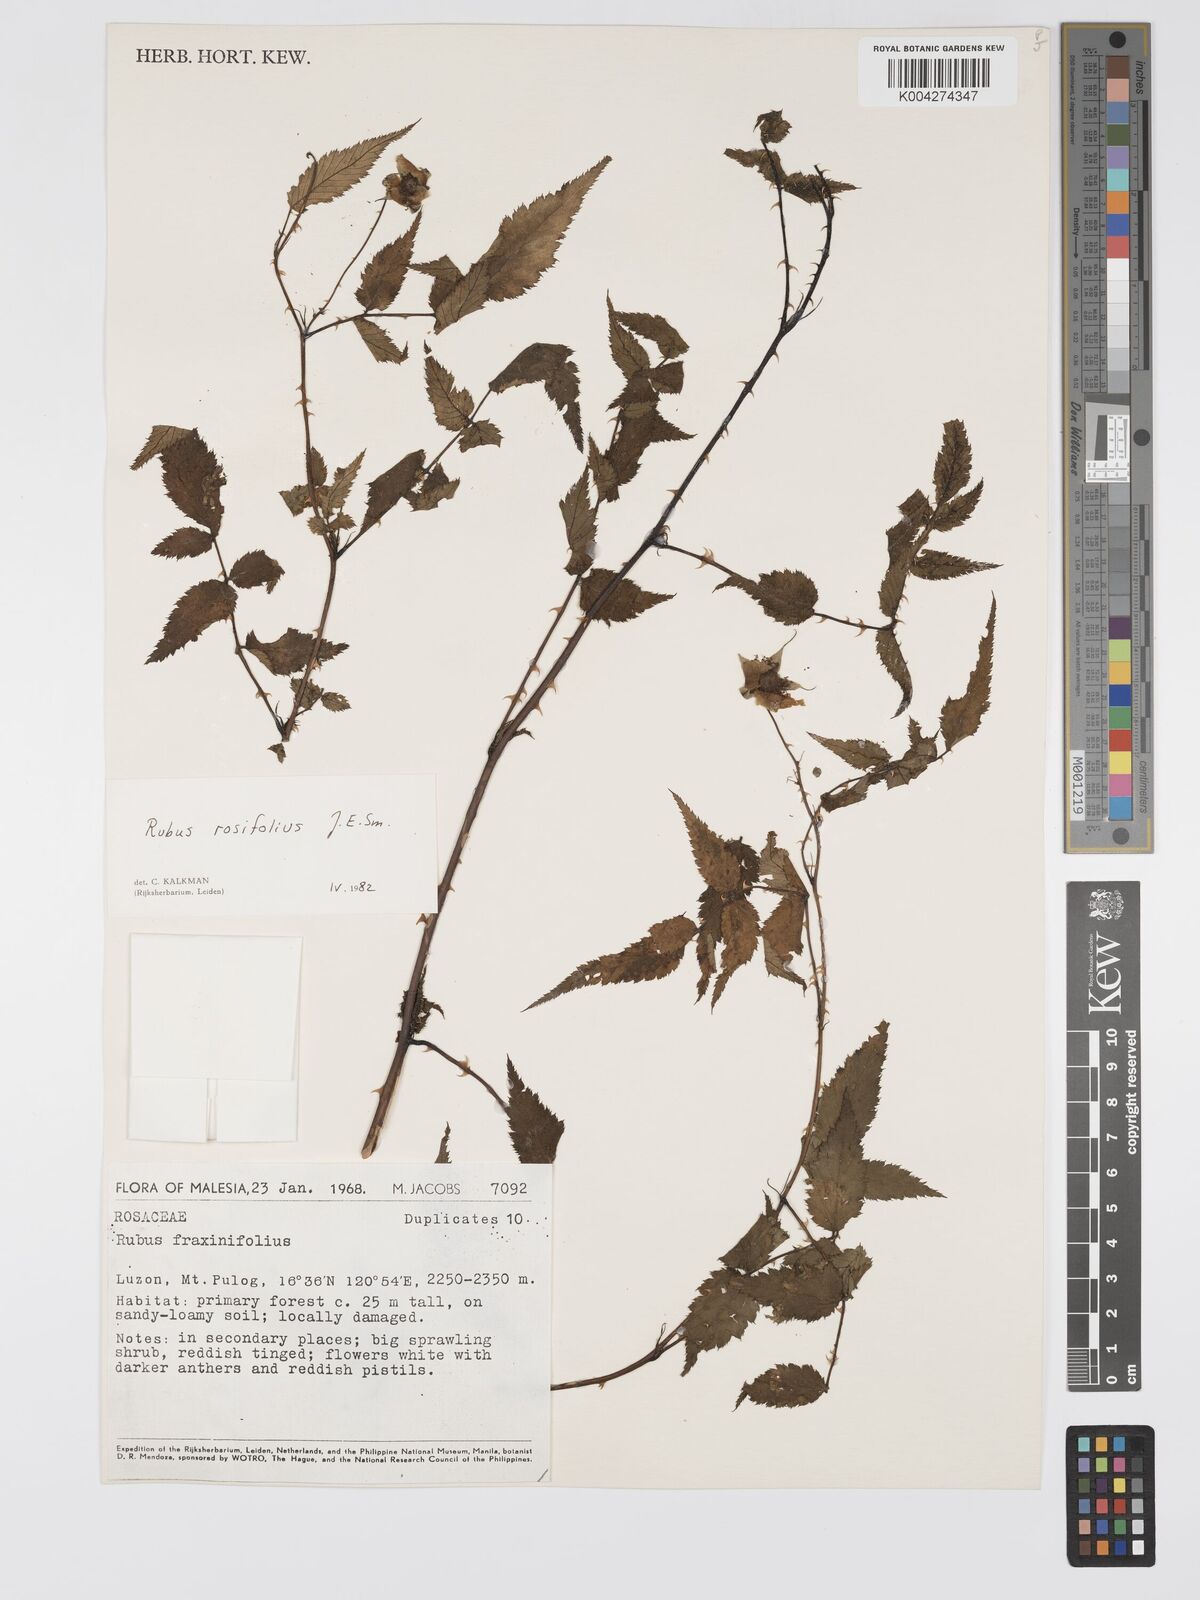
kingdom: Plantae
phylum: Tracheophyta
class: Magnoliopsida
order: Rosales
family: Rosaceae
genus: Rubus
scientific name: Rubus
